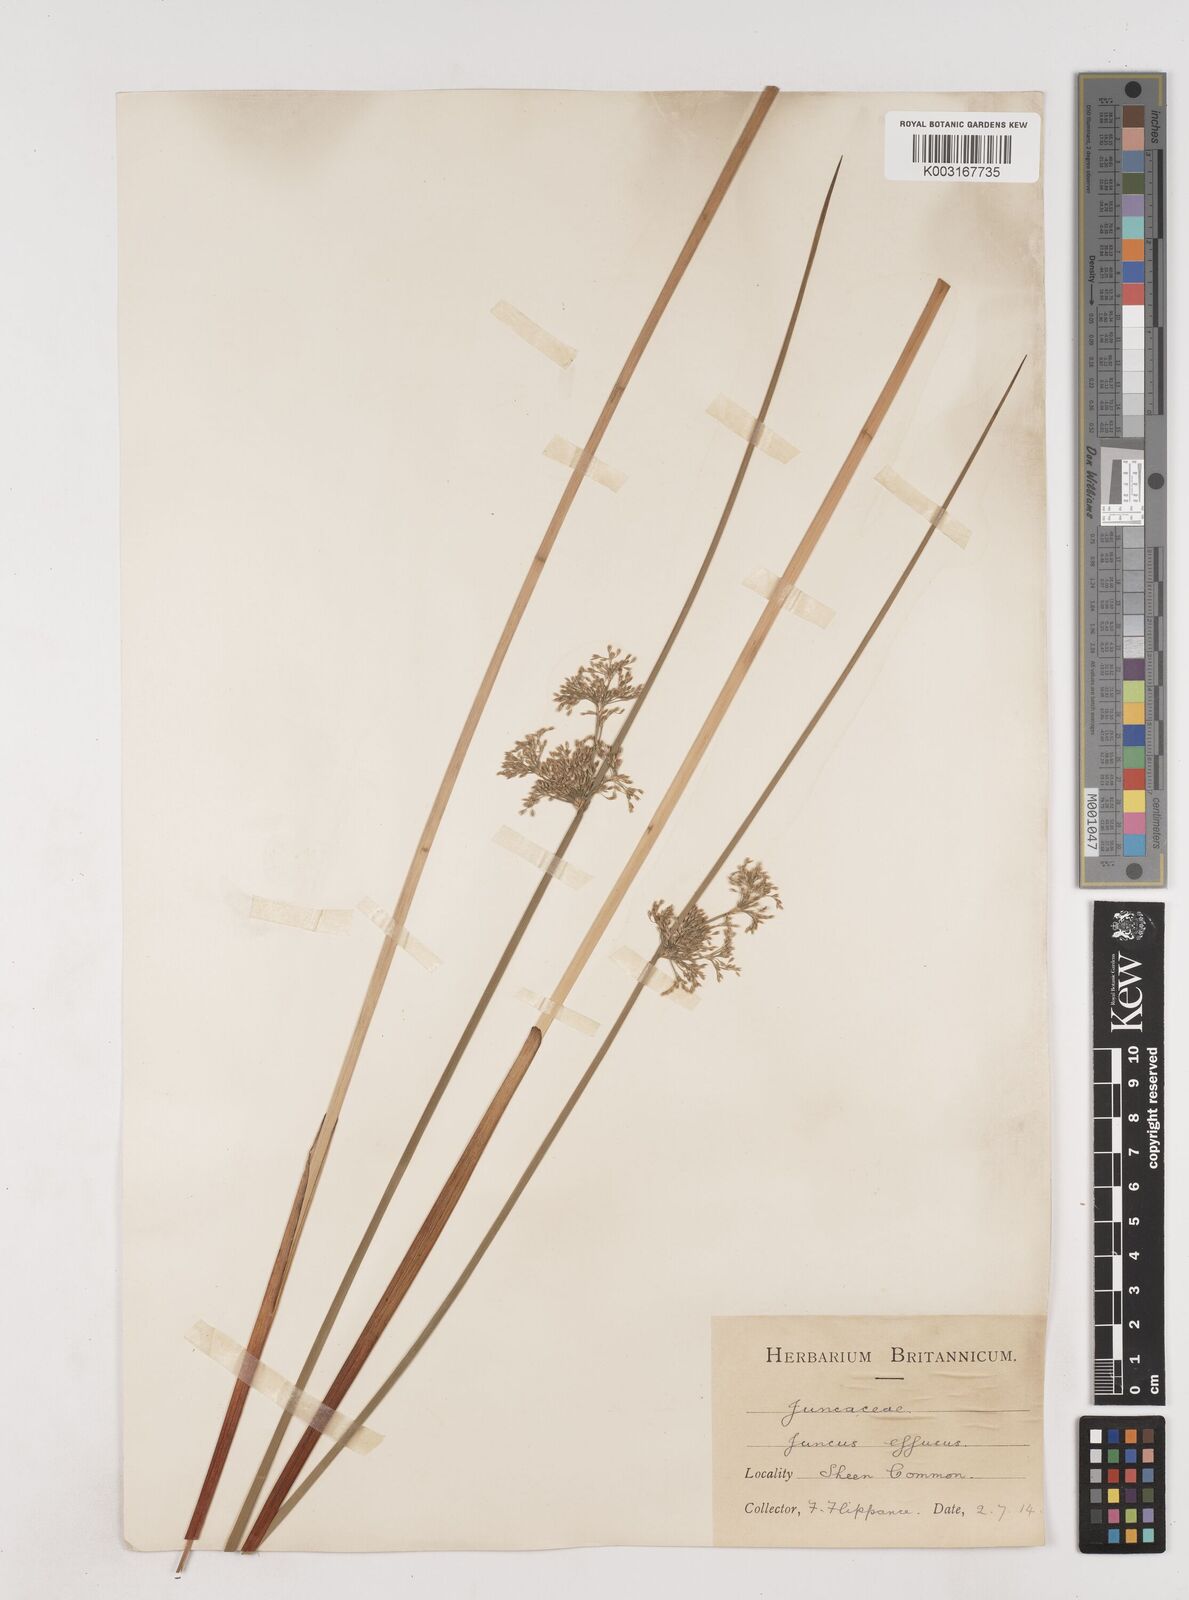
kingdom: Plantae
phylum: Tracheophyta
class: Liliopsida
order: Poales
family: Juncaceae
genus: Juncus
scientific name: Juncus effusus
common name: Soft rush
